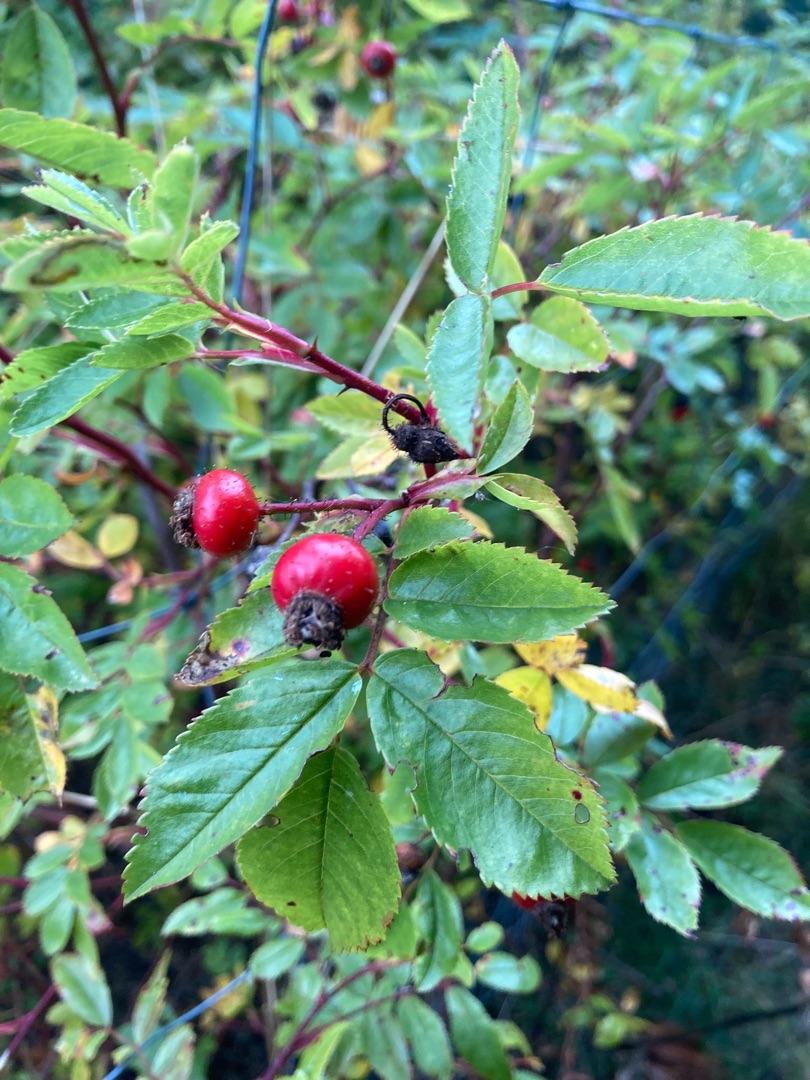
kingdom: Plantae
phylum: Tracheophyta
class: Magnoliopsida
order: Rosales
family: Rosaceae
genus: Rosa
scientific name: Rosa carolina
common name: Glansbladet rose
